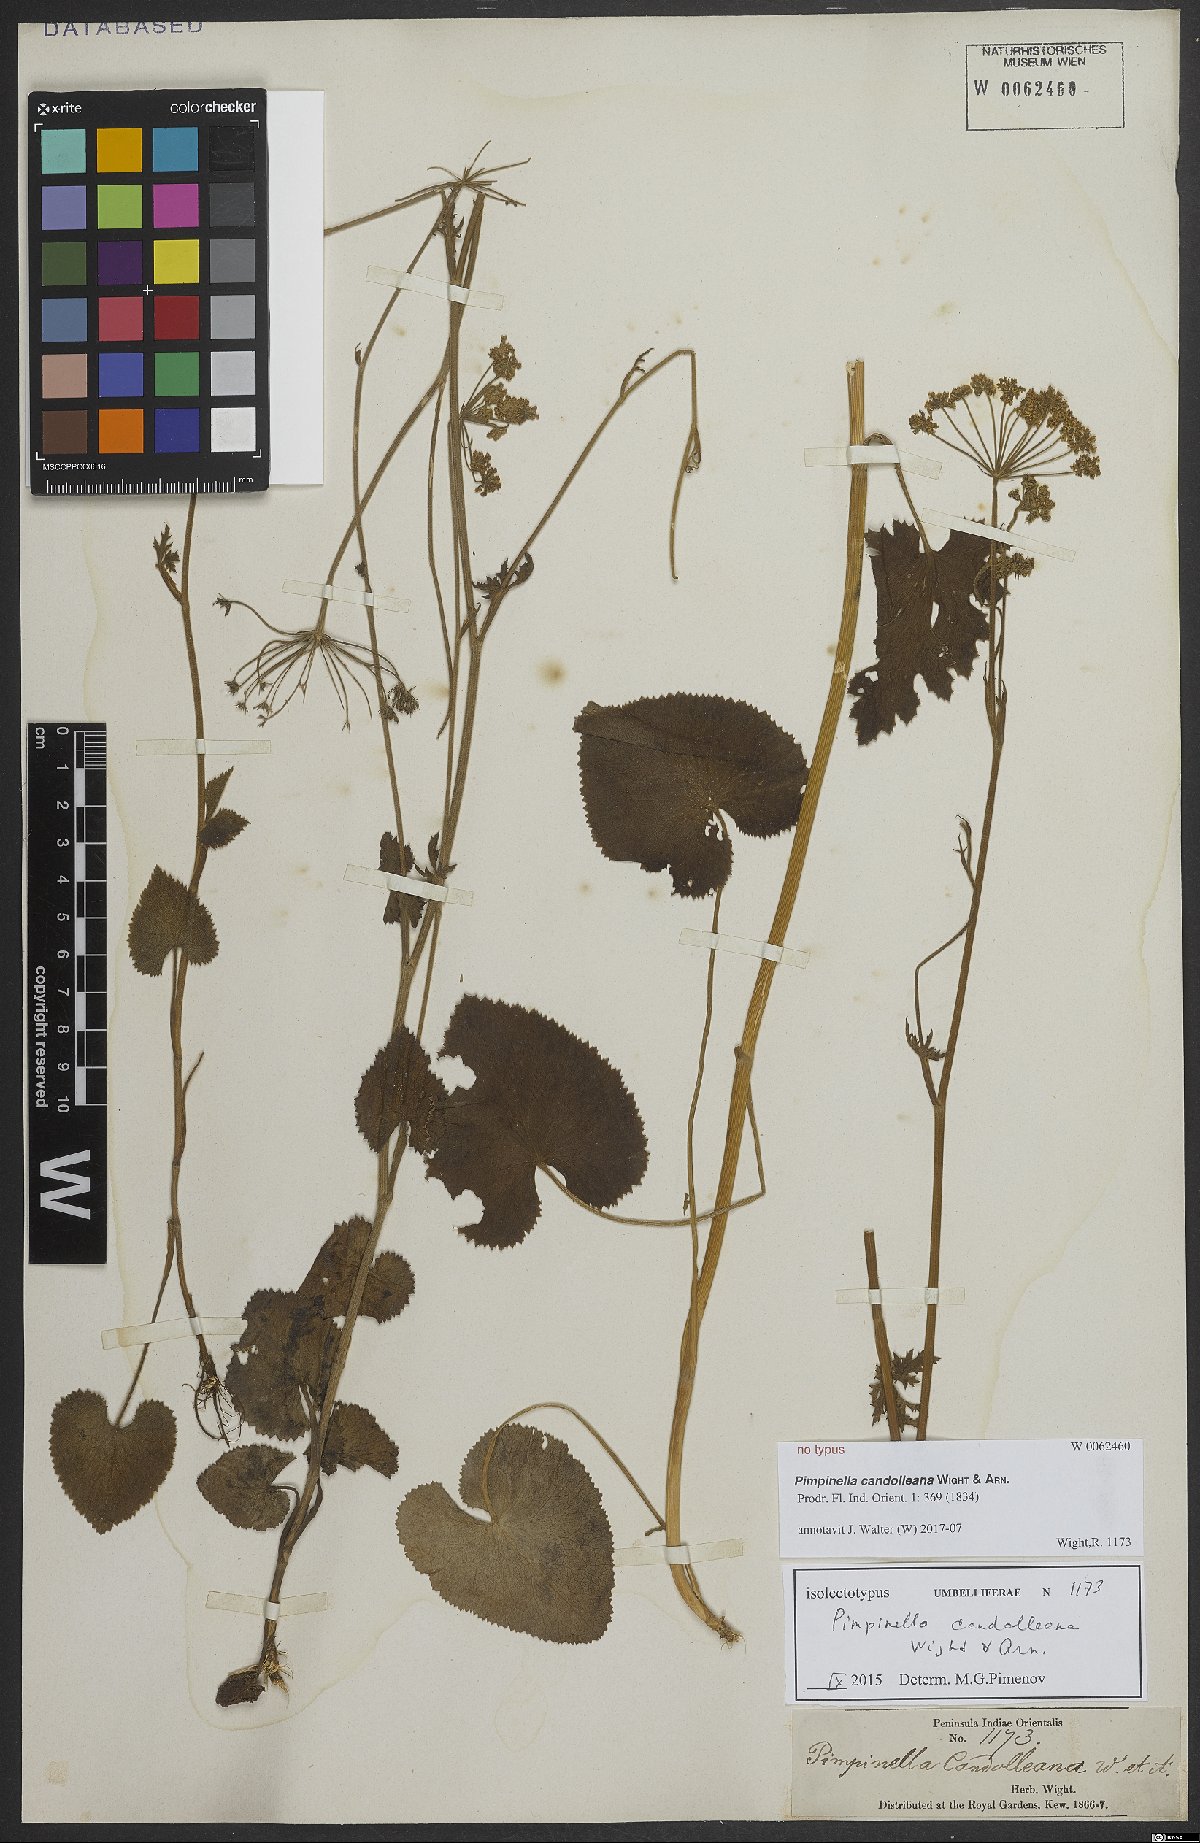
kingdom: Plantae
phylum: Tracheophyta
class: Magnoliopsida
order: Apiales
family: Apiaceae
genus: Pimpinella
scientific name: Pimpinella candolleana
